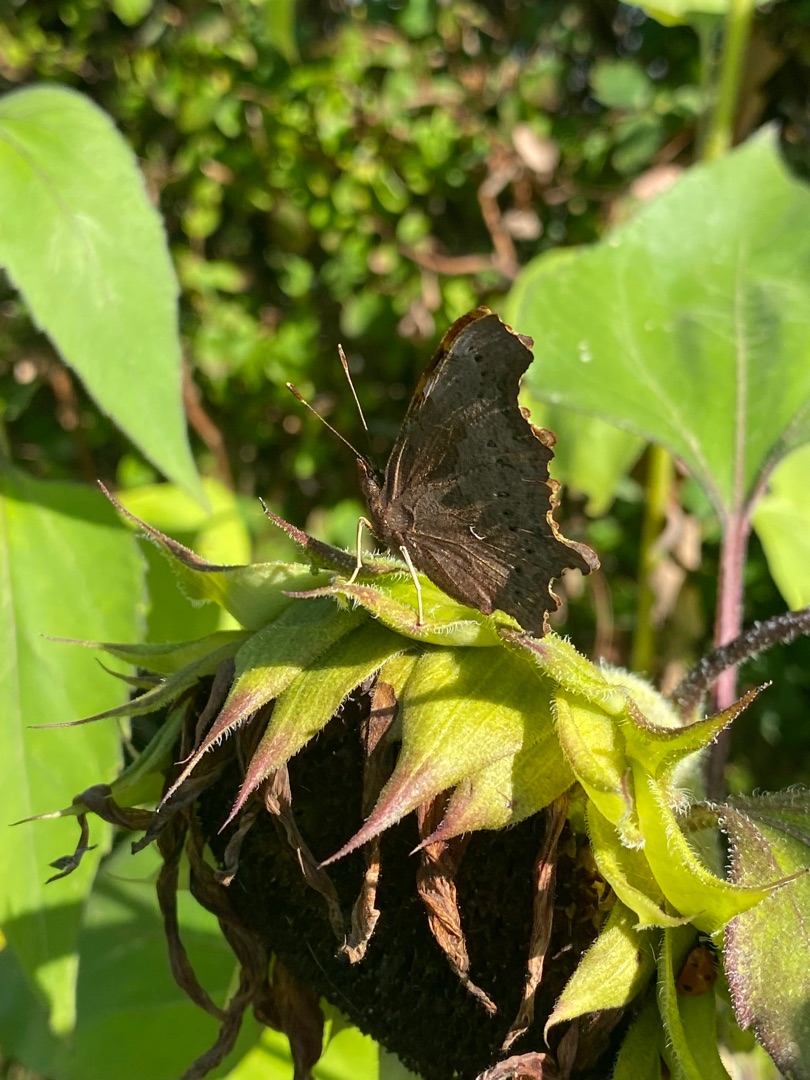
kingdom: Animalia
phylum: Arthropoda
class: Insecta
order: Lepidoptera
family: Nymphalidae
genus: Polygonia
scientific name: Polygonia c-album
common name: Det hvide C
